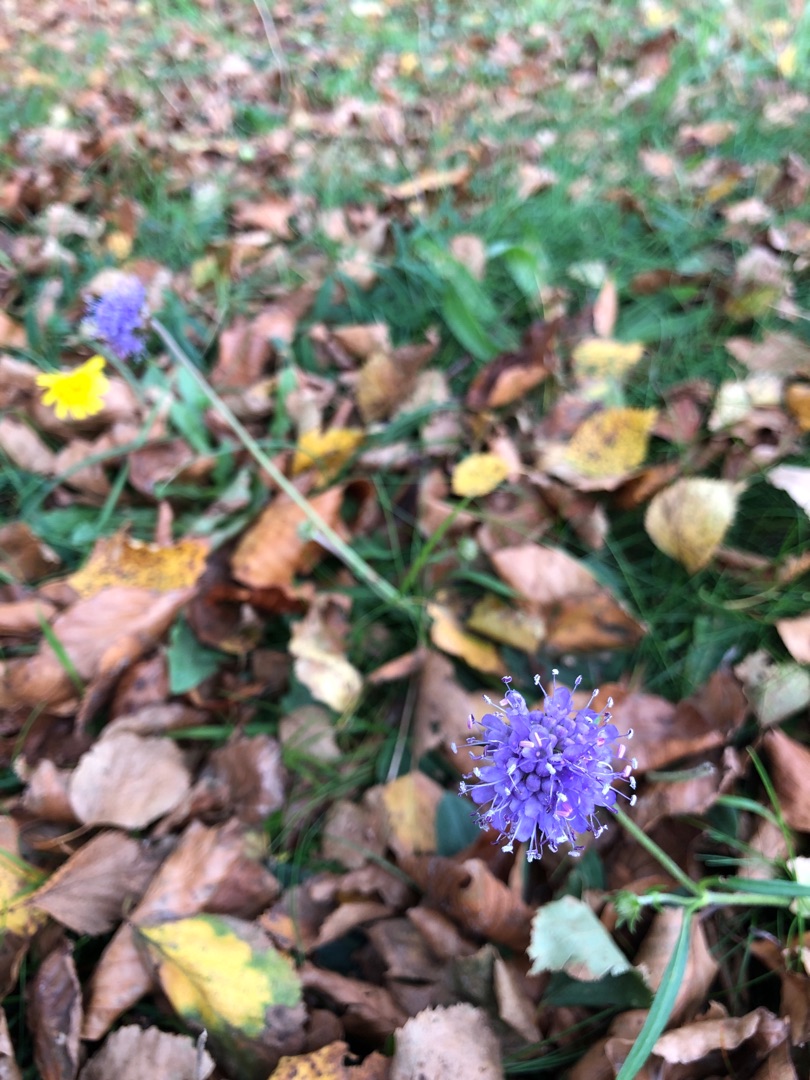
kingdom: Plantae
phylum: Tracheophyta
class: Magnoliopsida
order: Dipsacales
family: Caprifoliaceae
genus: Succisa
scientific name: Succisa pratensis
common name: Djævelsbid
